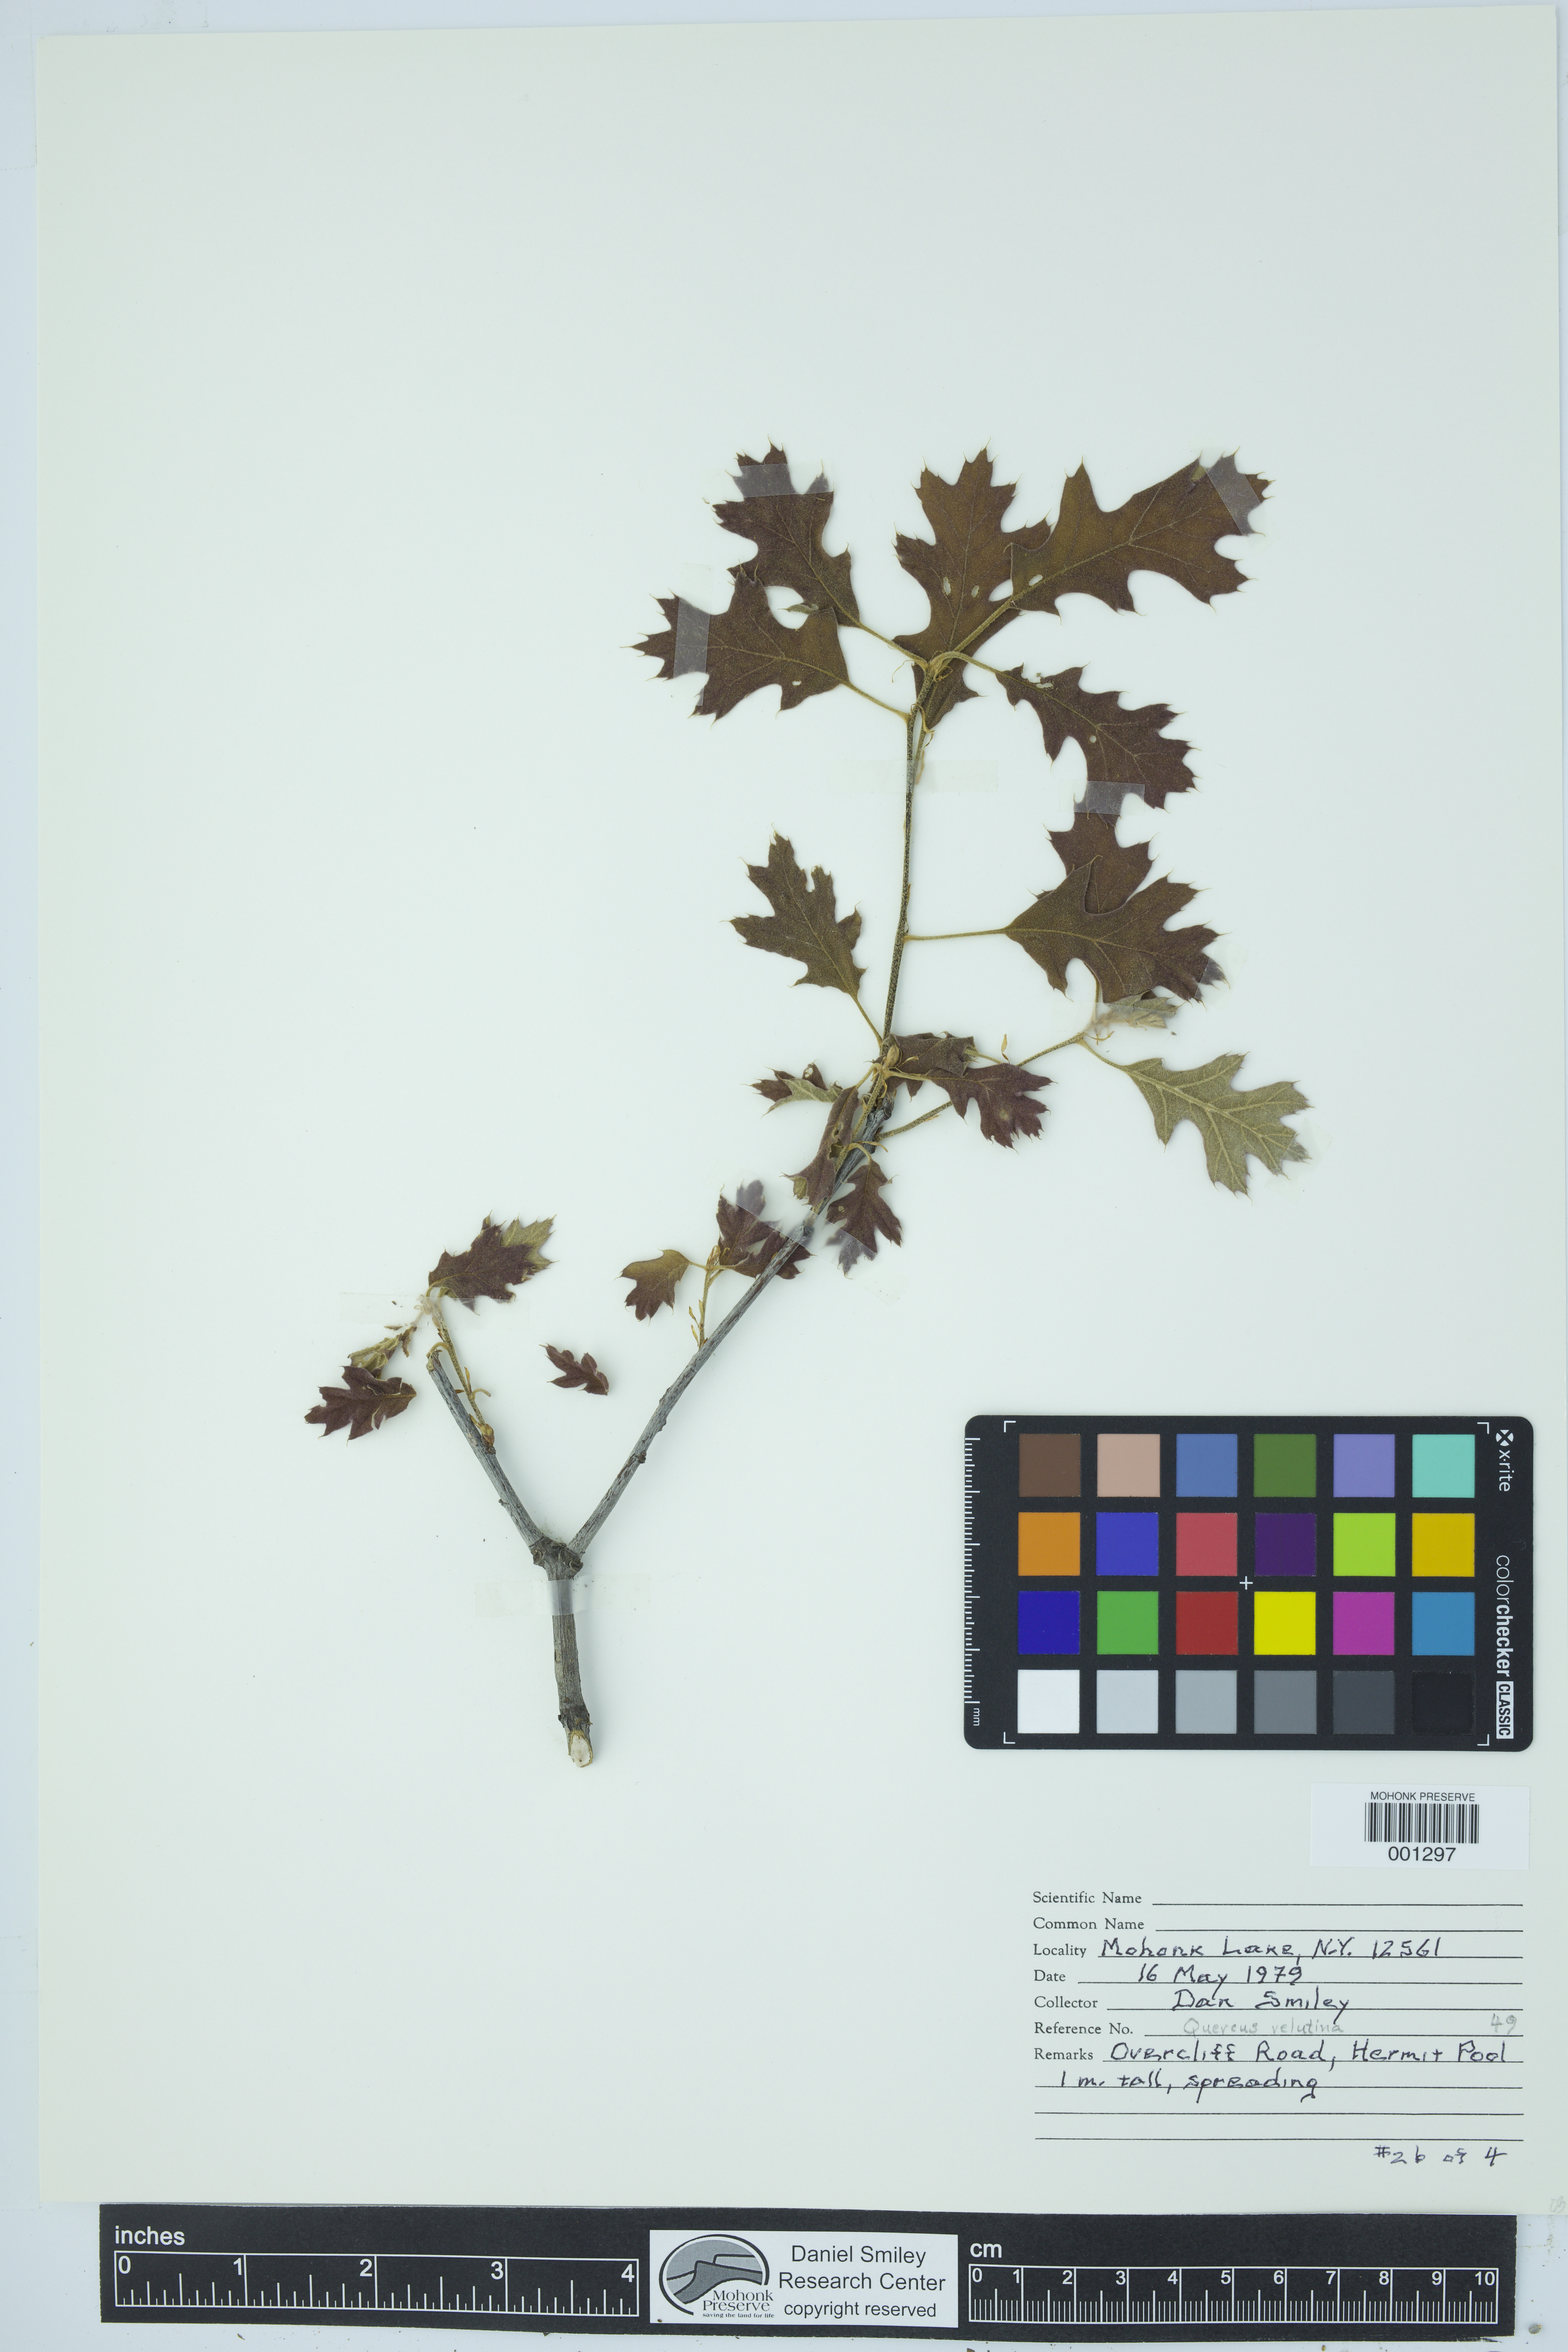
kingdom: Plantae
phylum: Tracheophyta
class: Magnoliopsida
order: Fagales
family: Fagaceae
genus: Quercus
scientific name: Quercus velutina
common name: Black oak
